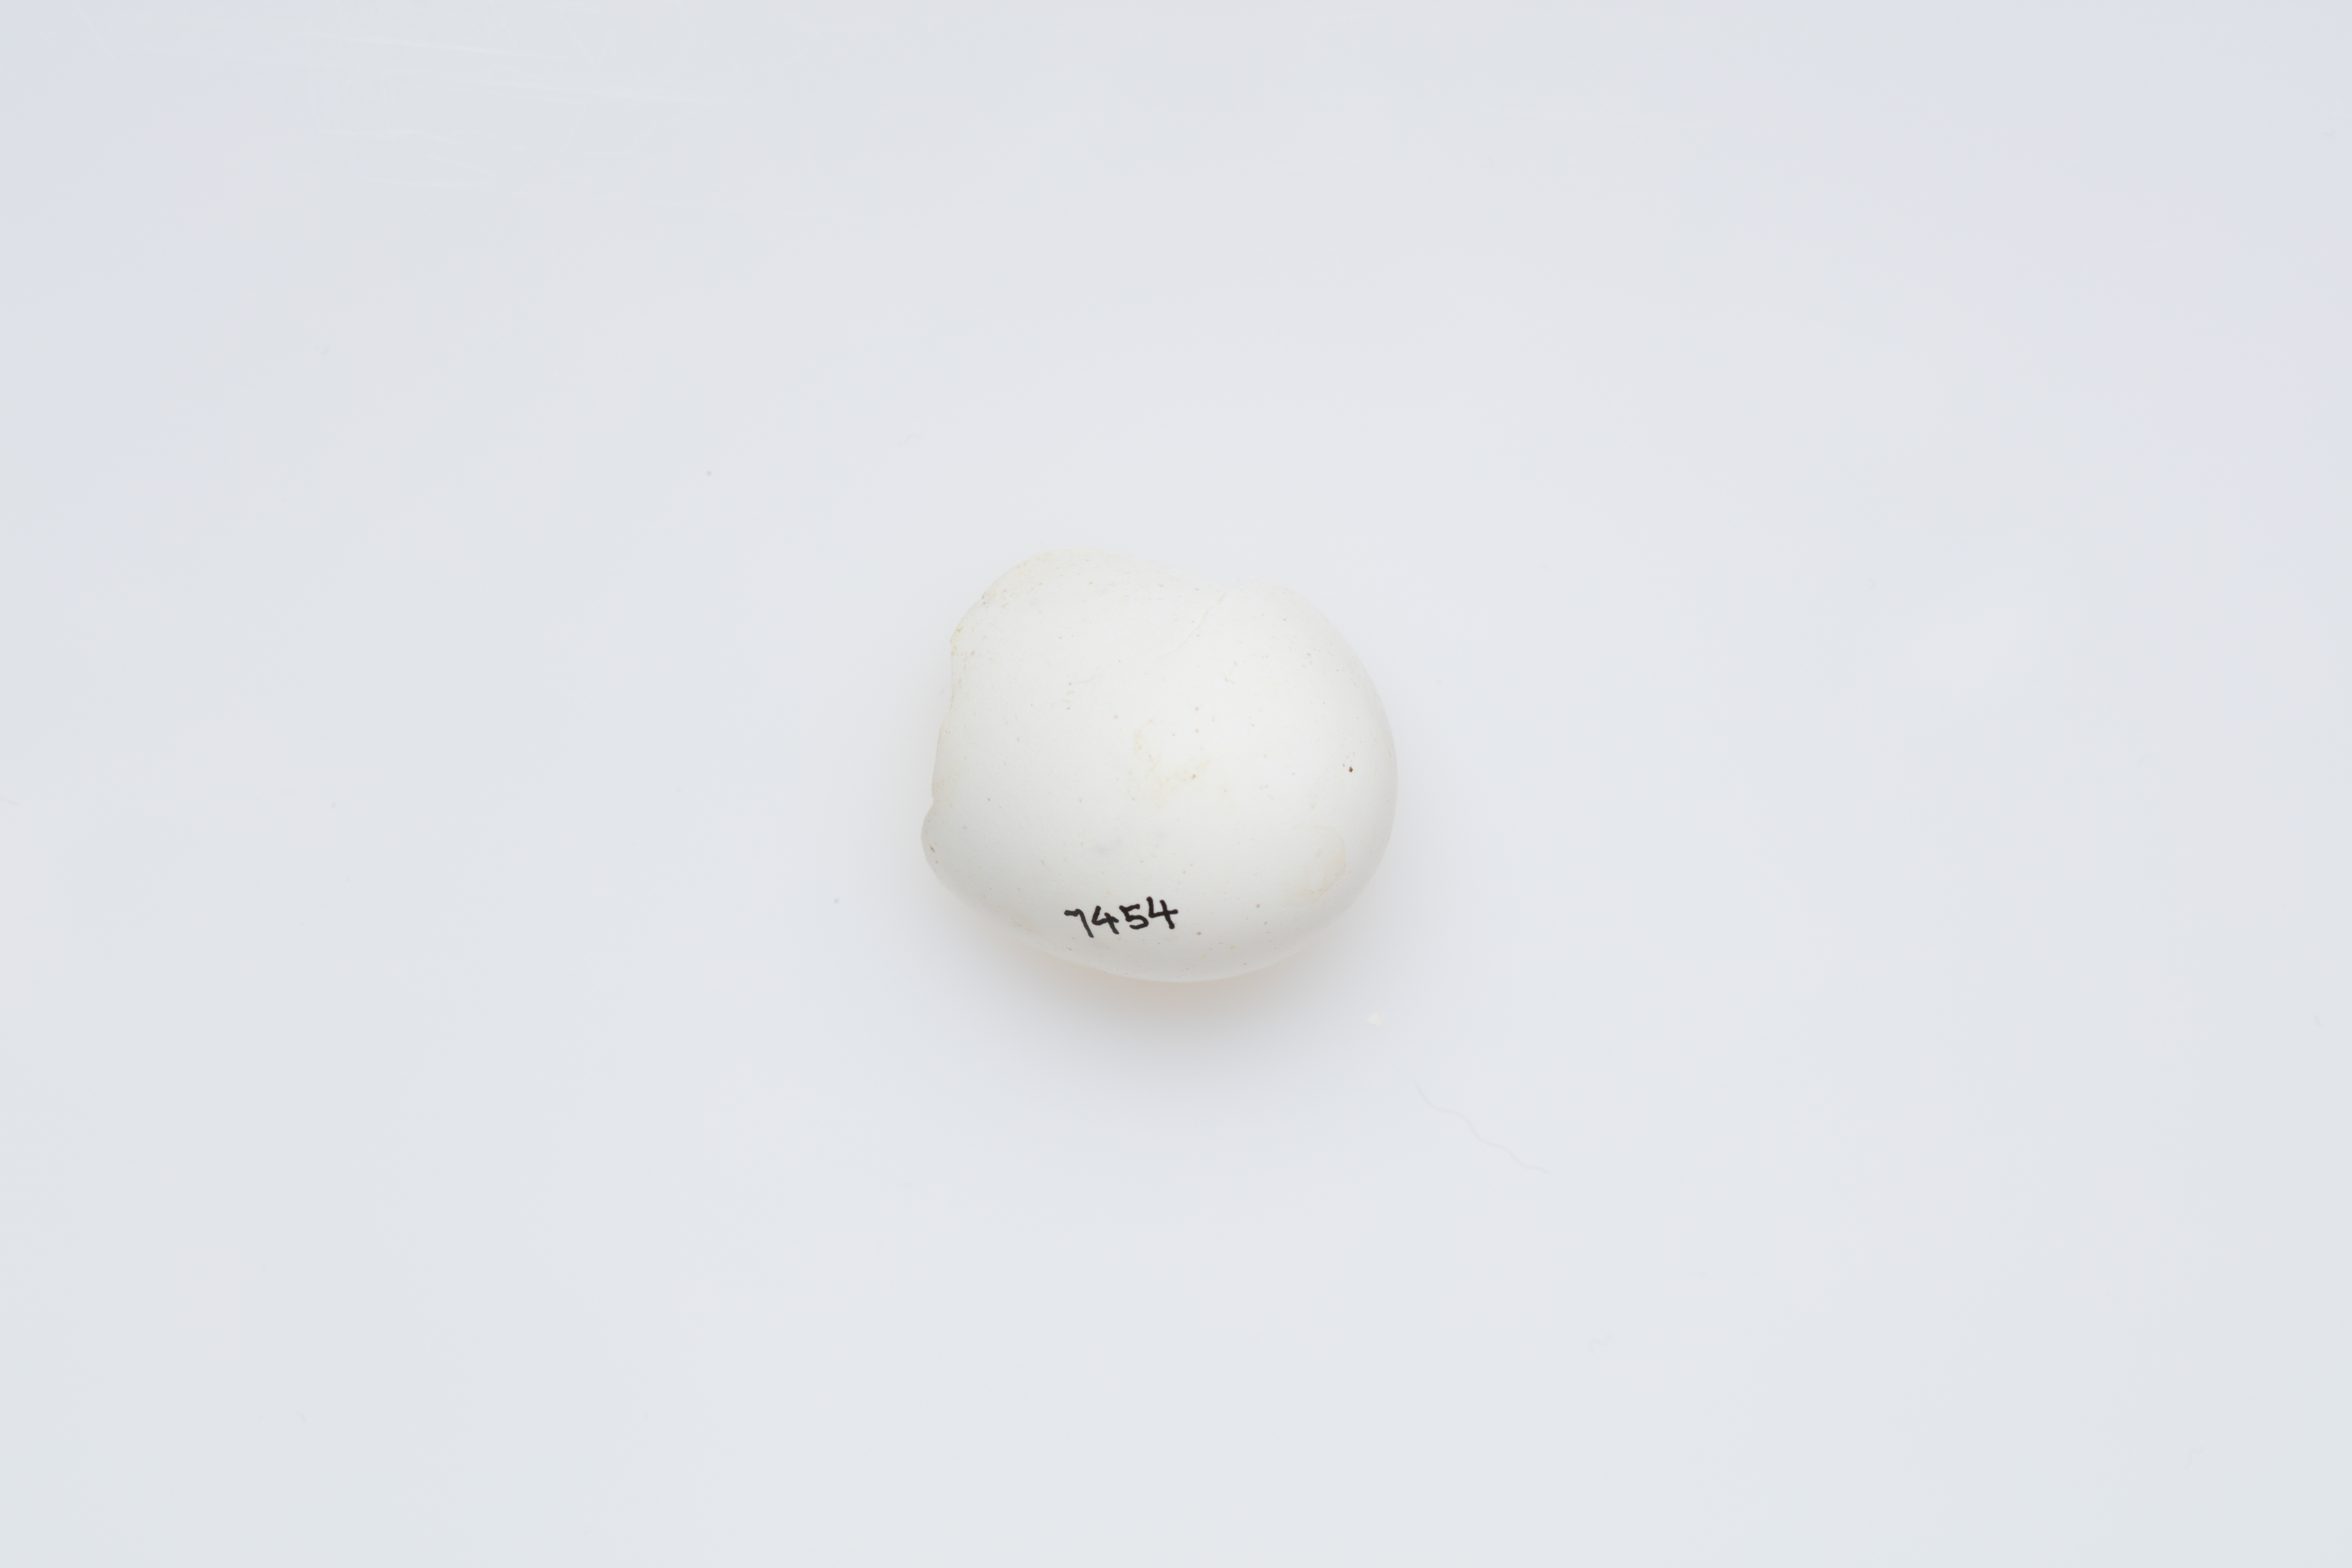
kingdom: Animalia
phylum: Chordata
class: Aves
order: Procellariiformes
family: Hydrobatidae
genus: Garrodia
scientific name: Garrodia nereis
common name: Grey-backed storm petrel
